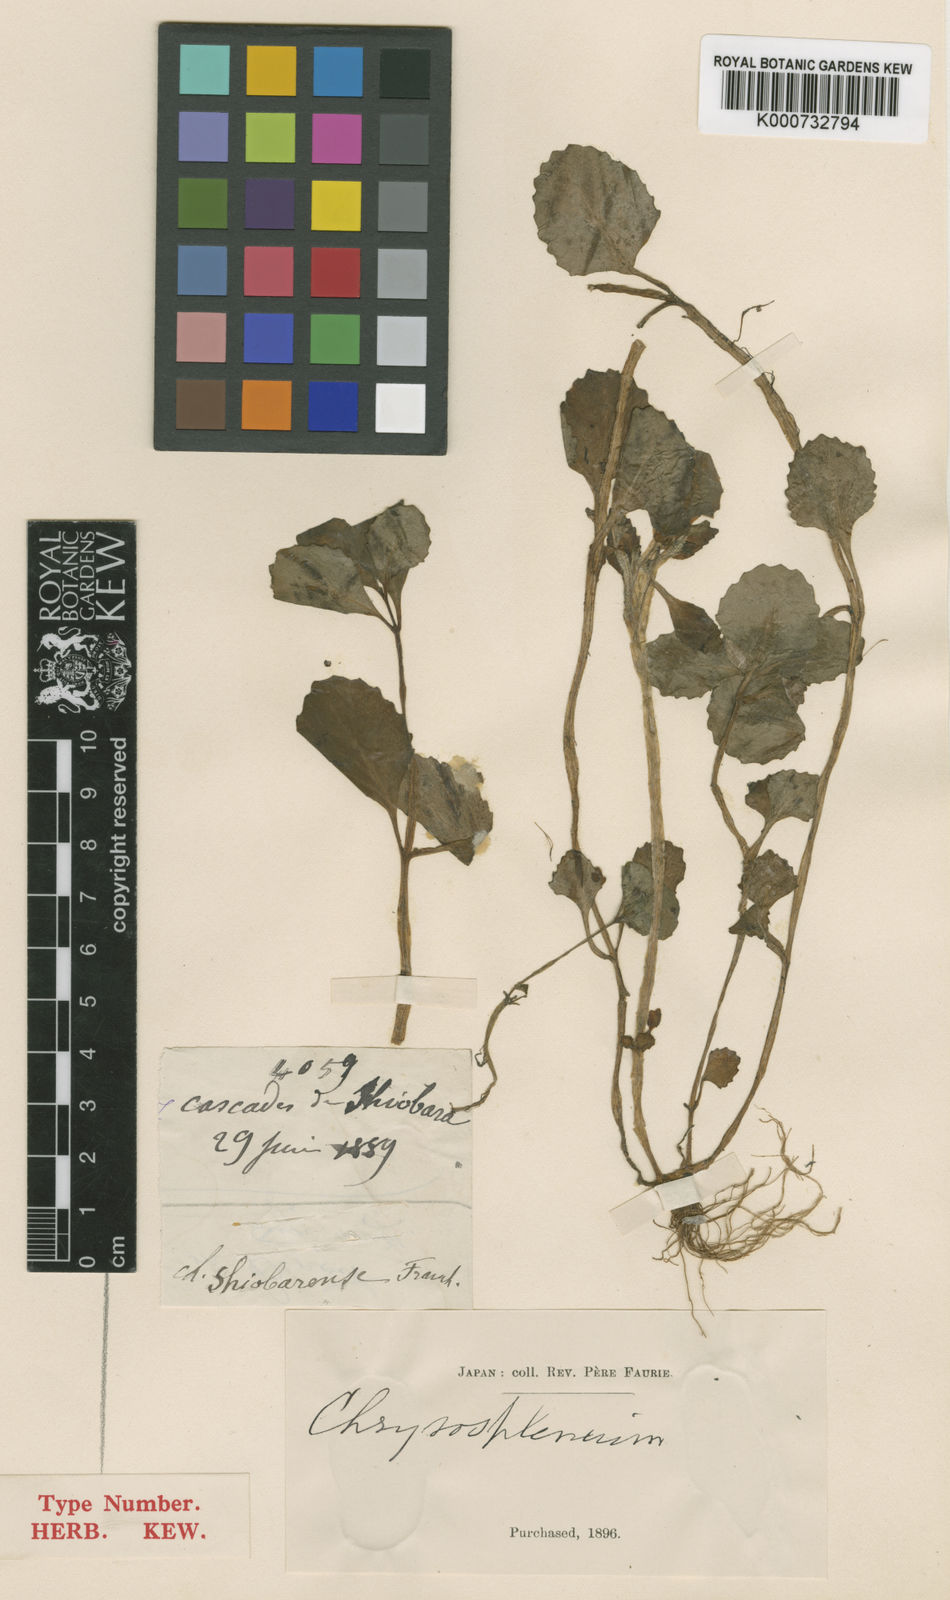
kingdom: Plantae
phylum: Tracheophyta
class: Magnoliopsida
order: Saxifragales
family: Saxifragaceae
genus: Chrysosplenium
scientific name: Chrysosplenium macrophyllum
